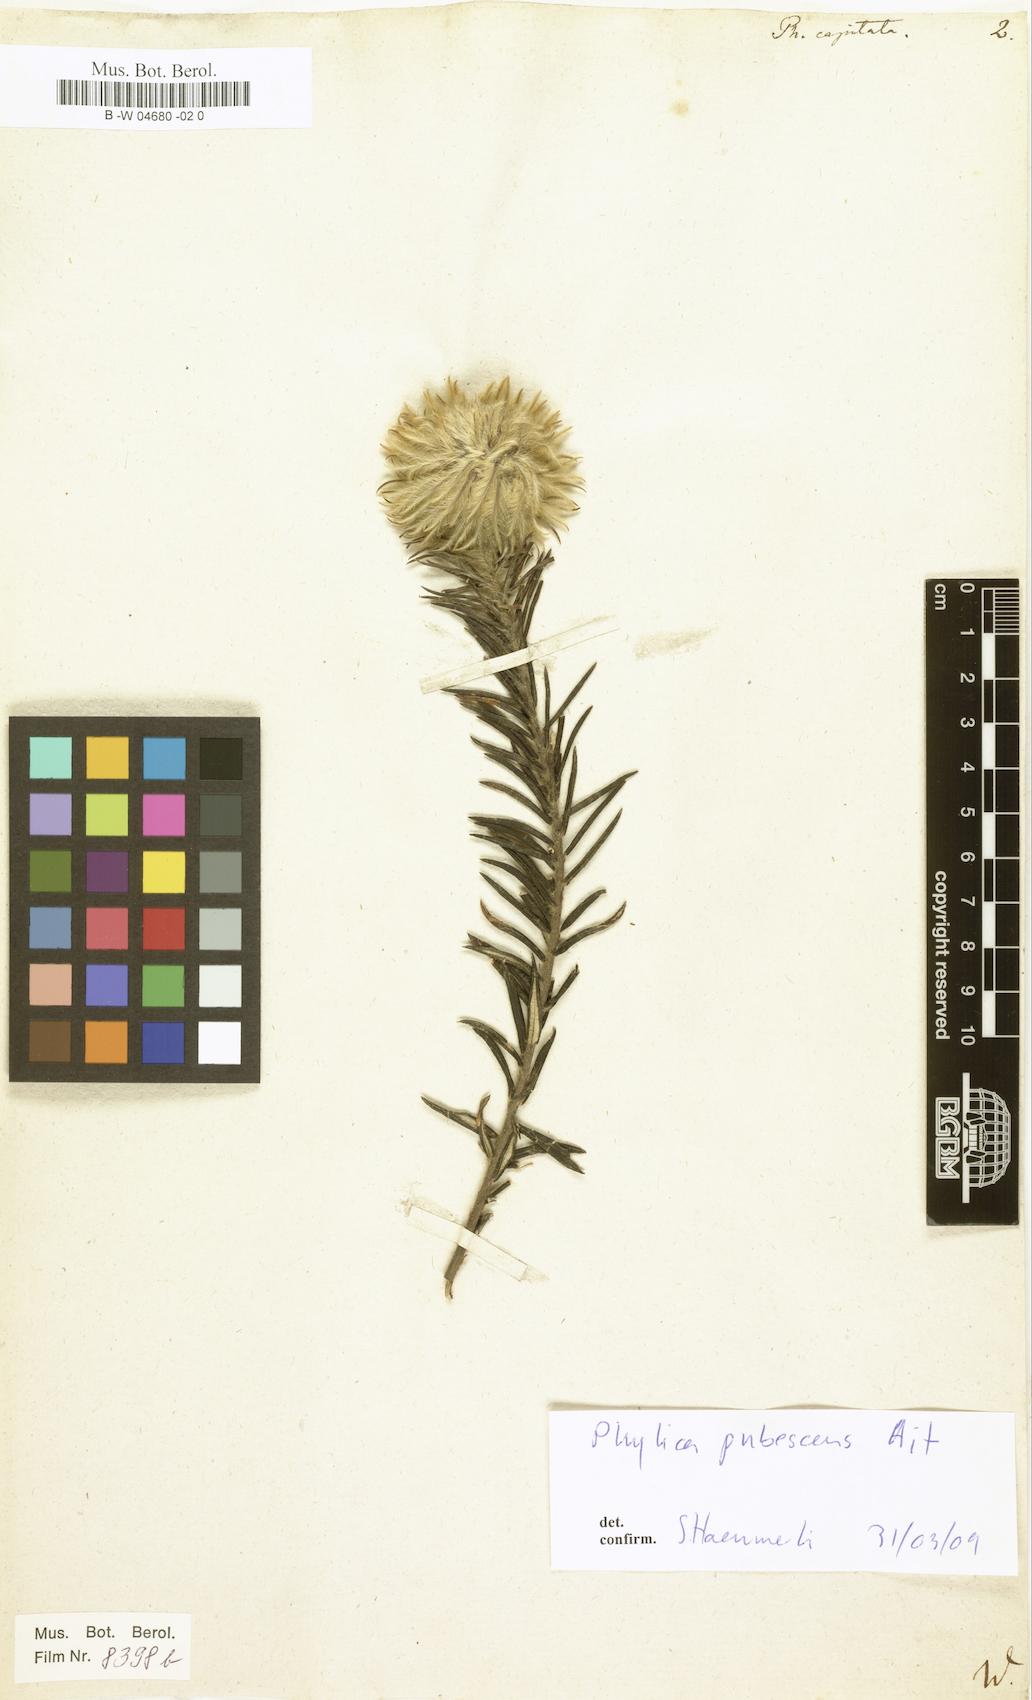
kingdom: Plantae
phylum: Tracheophyta
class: Magnoliopsida
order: Rosales
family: Rhamnaceae
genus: Phylica
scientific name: Phylica pubescens
